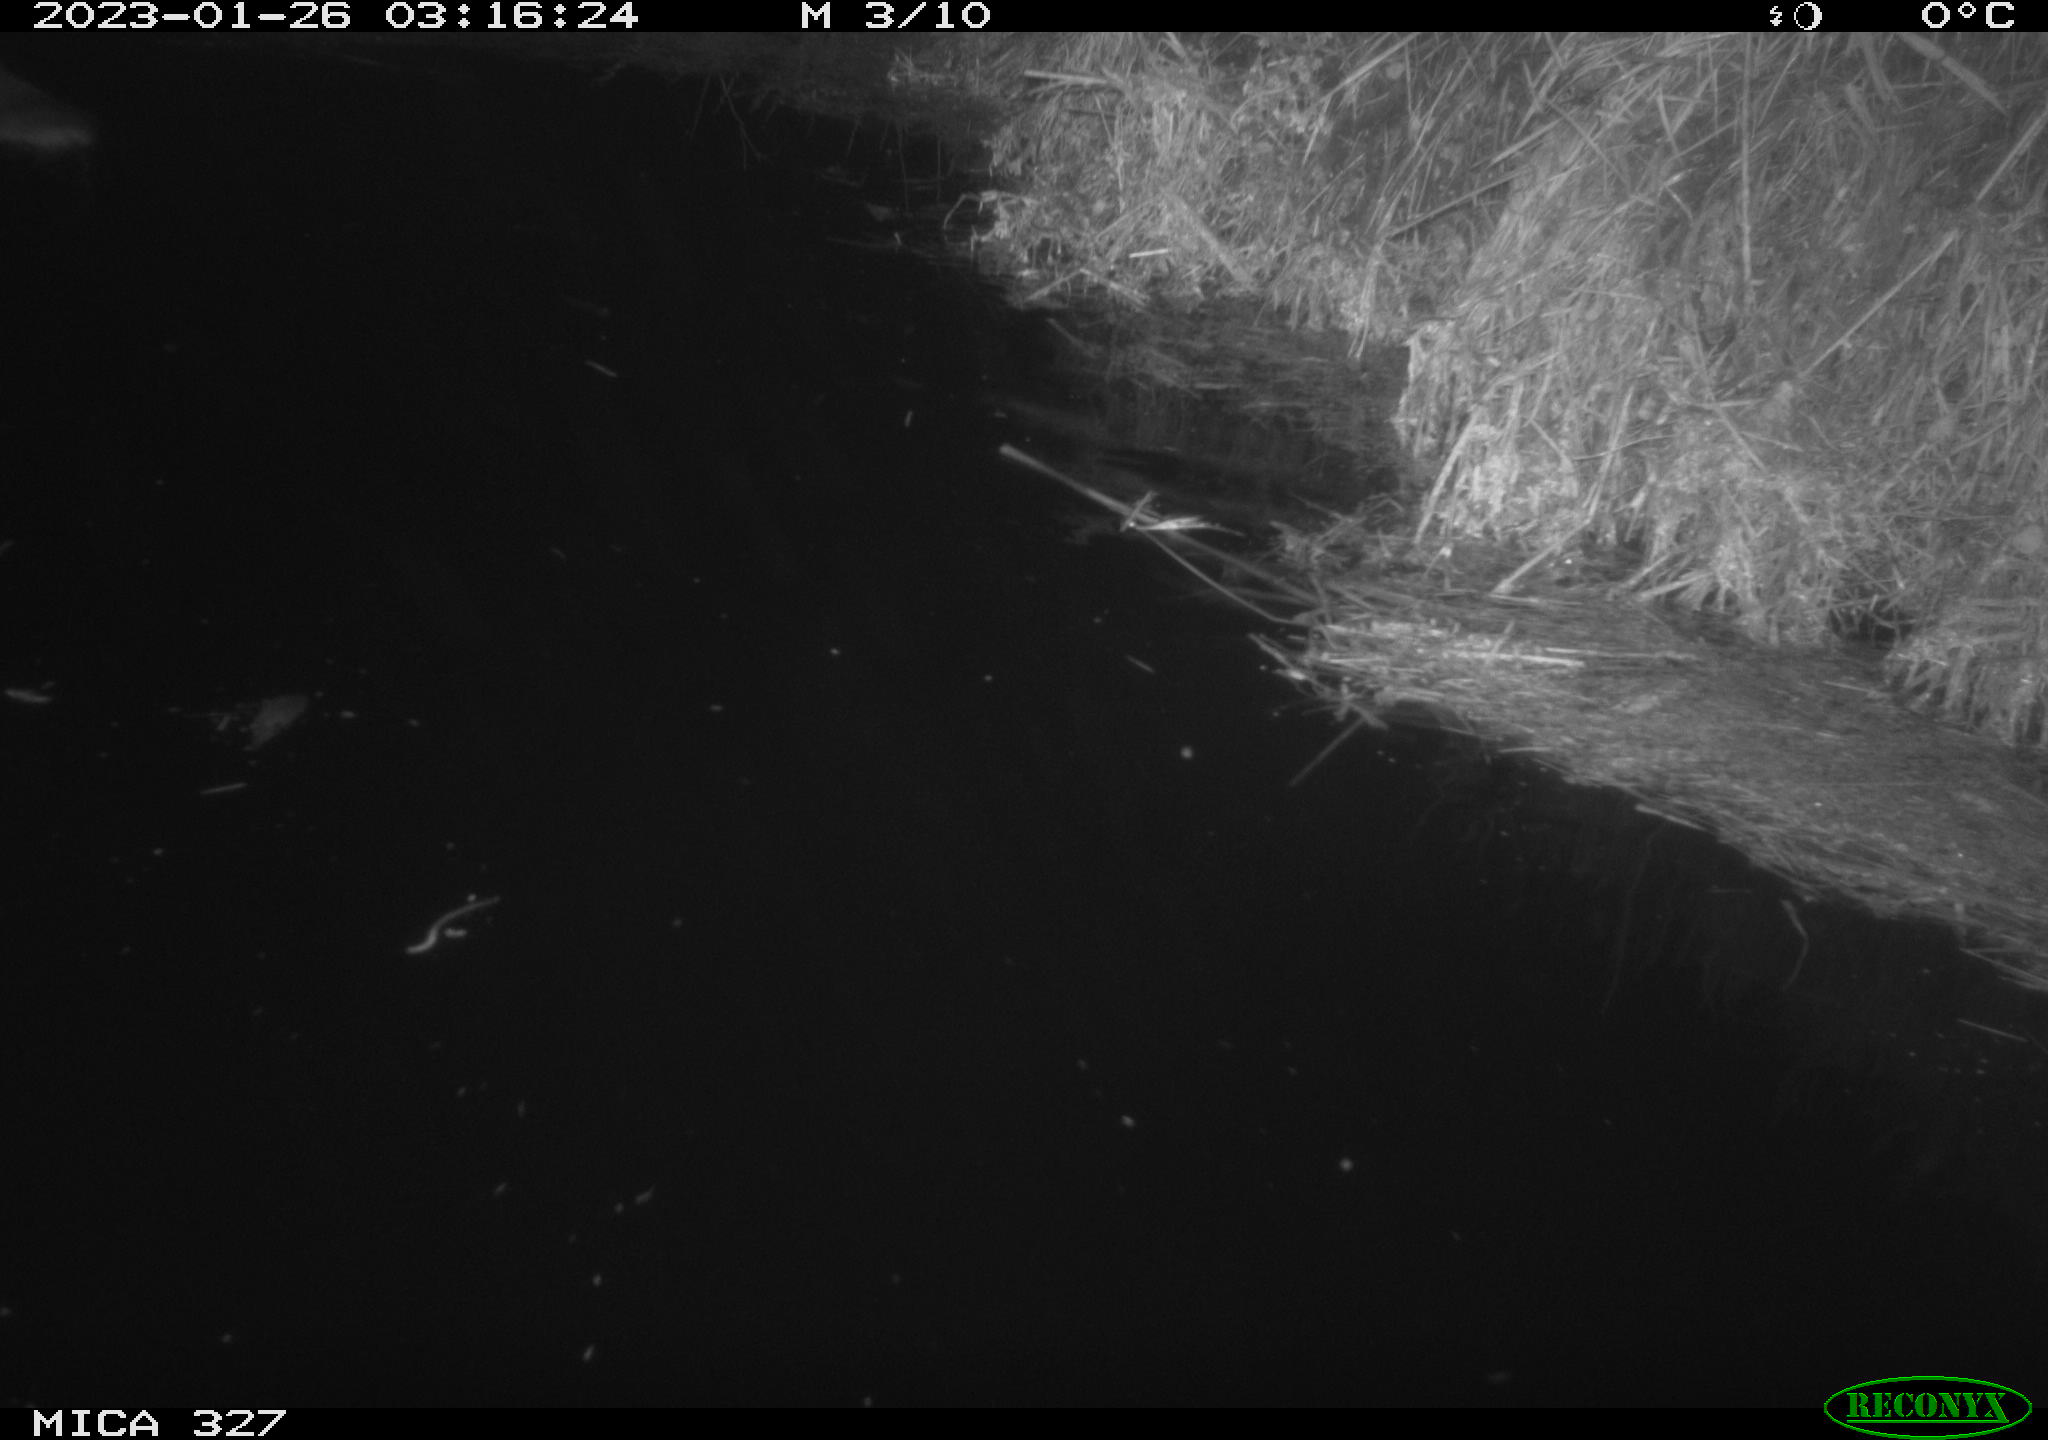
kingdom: Animalia
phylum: Chordata
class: Mammalia
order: Rodentia
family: Cricetidae
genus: Ondatra
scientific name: Ondatra zibethicus
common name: Muskrat
